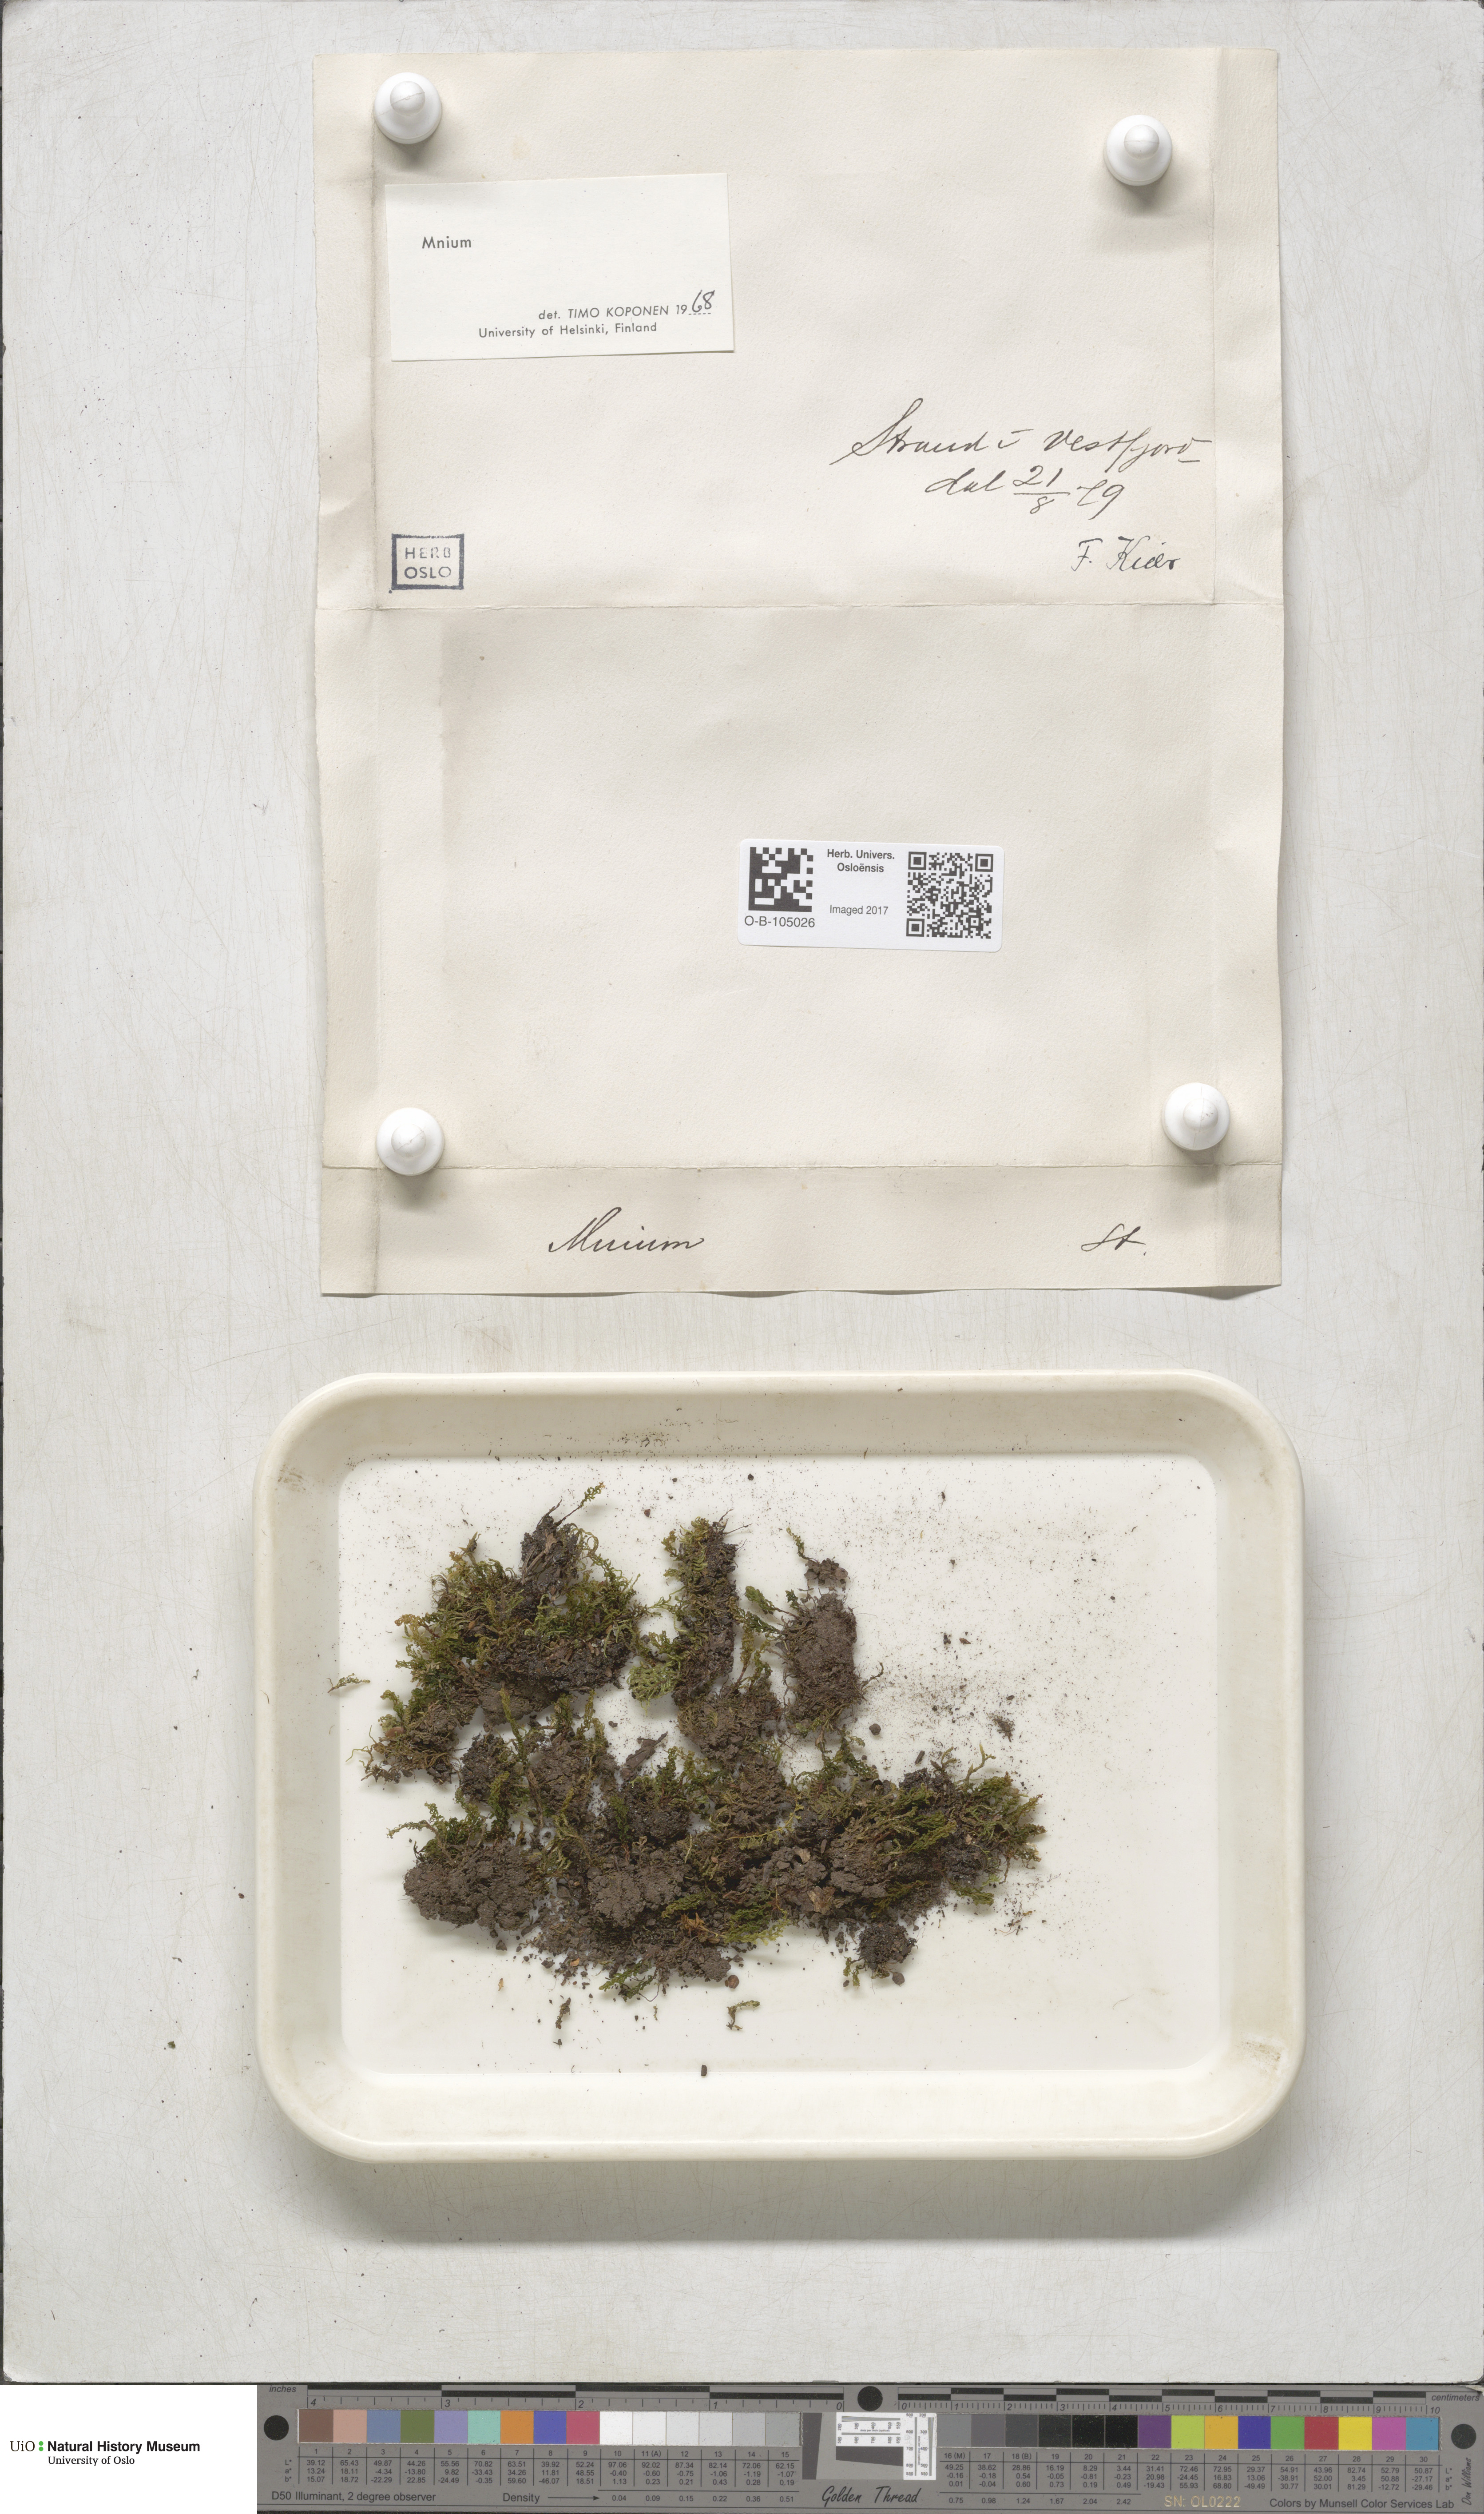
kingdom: Plantae
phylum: Bryophyta
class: Bryopsida
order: Bryales
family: Mniaceae
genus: Mnium
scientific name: Mnium
